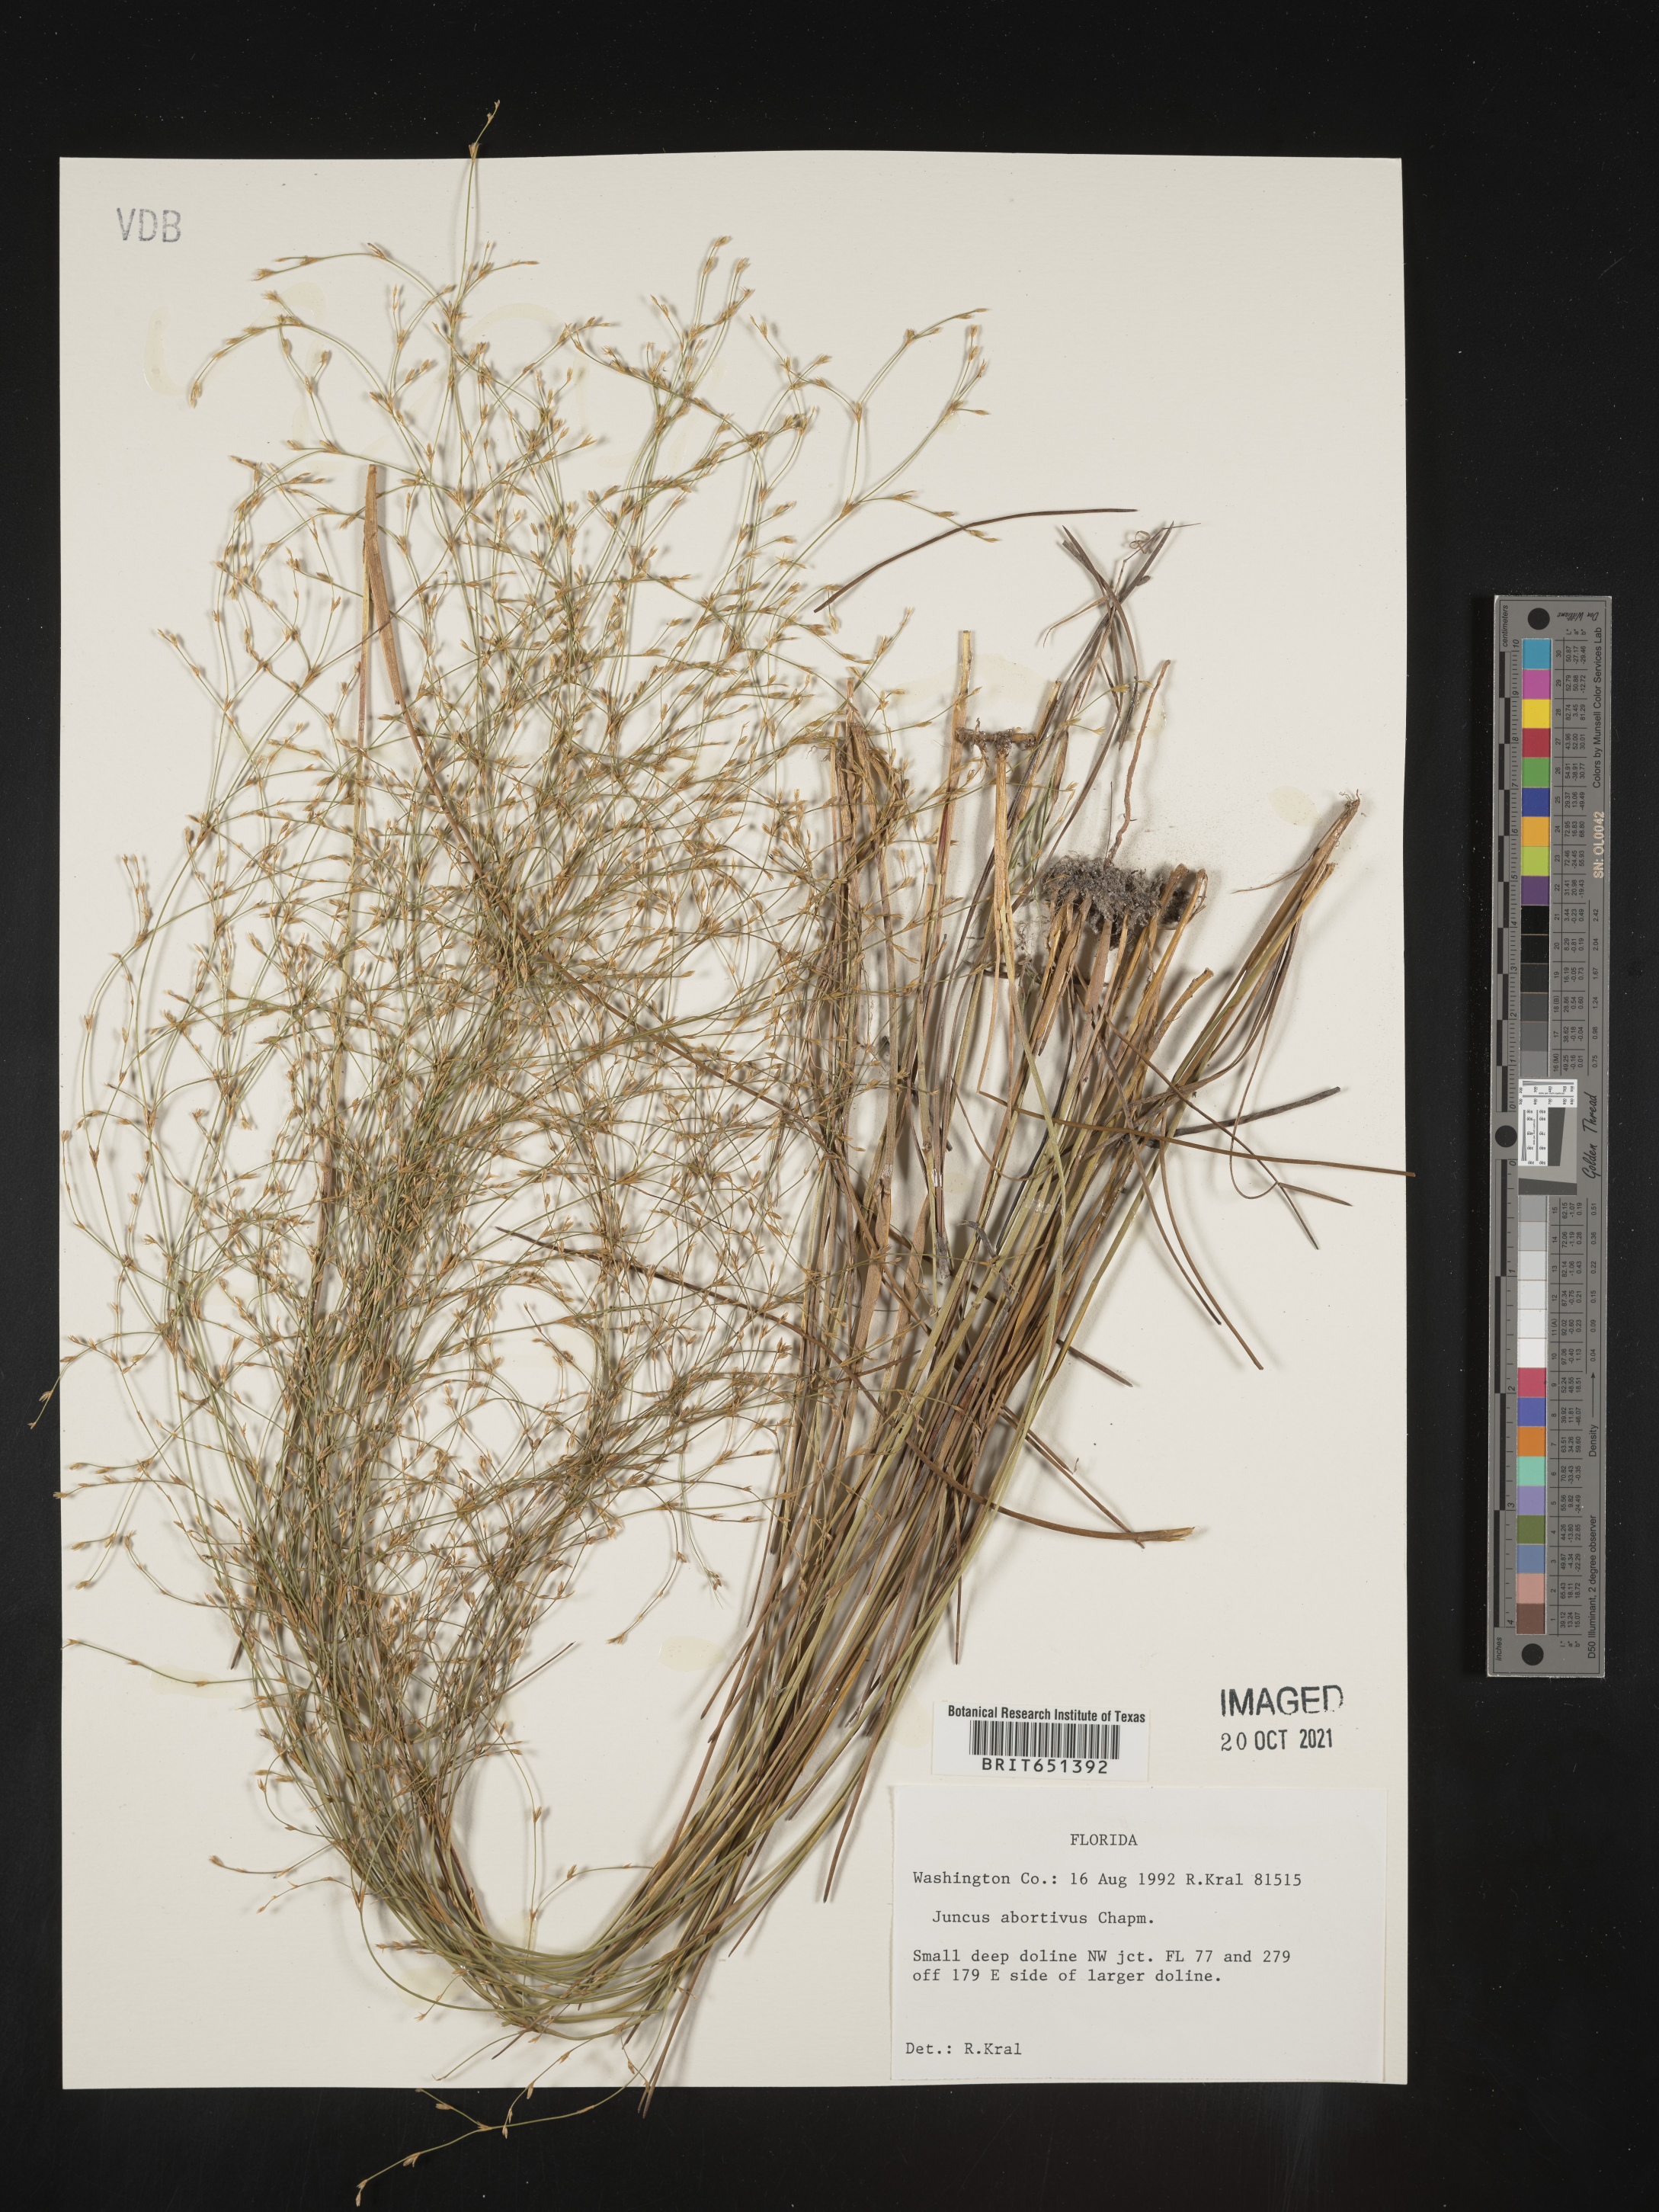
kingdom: Plantae
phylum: Tracheophyta
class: Liliopsida
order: Poales
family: Juncaceae
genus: Juncus
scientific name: Juncus abortivus
